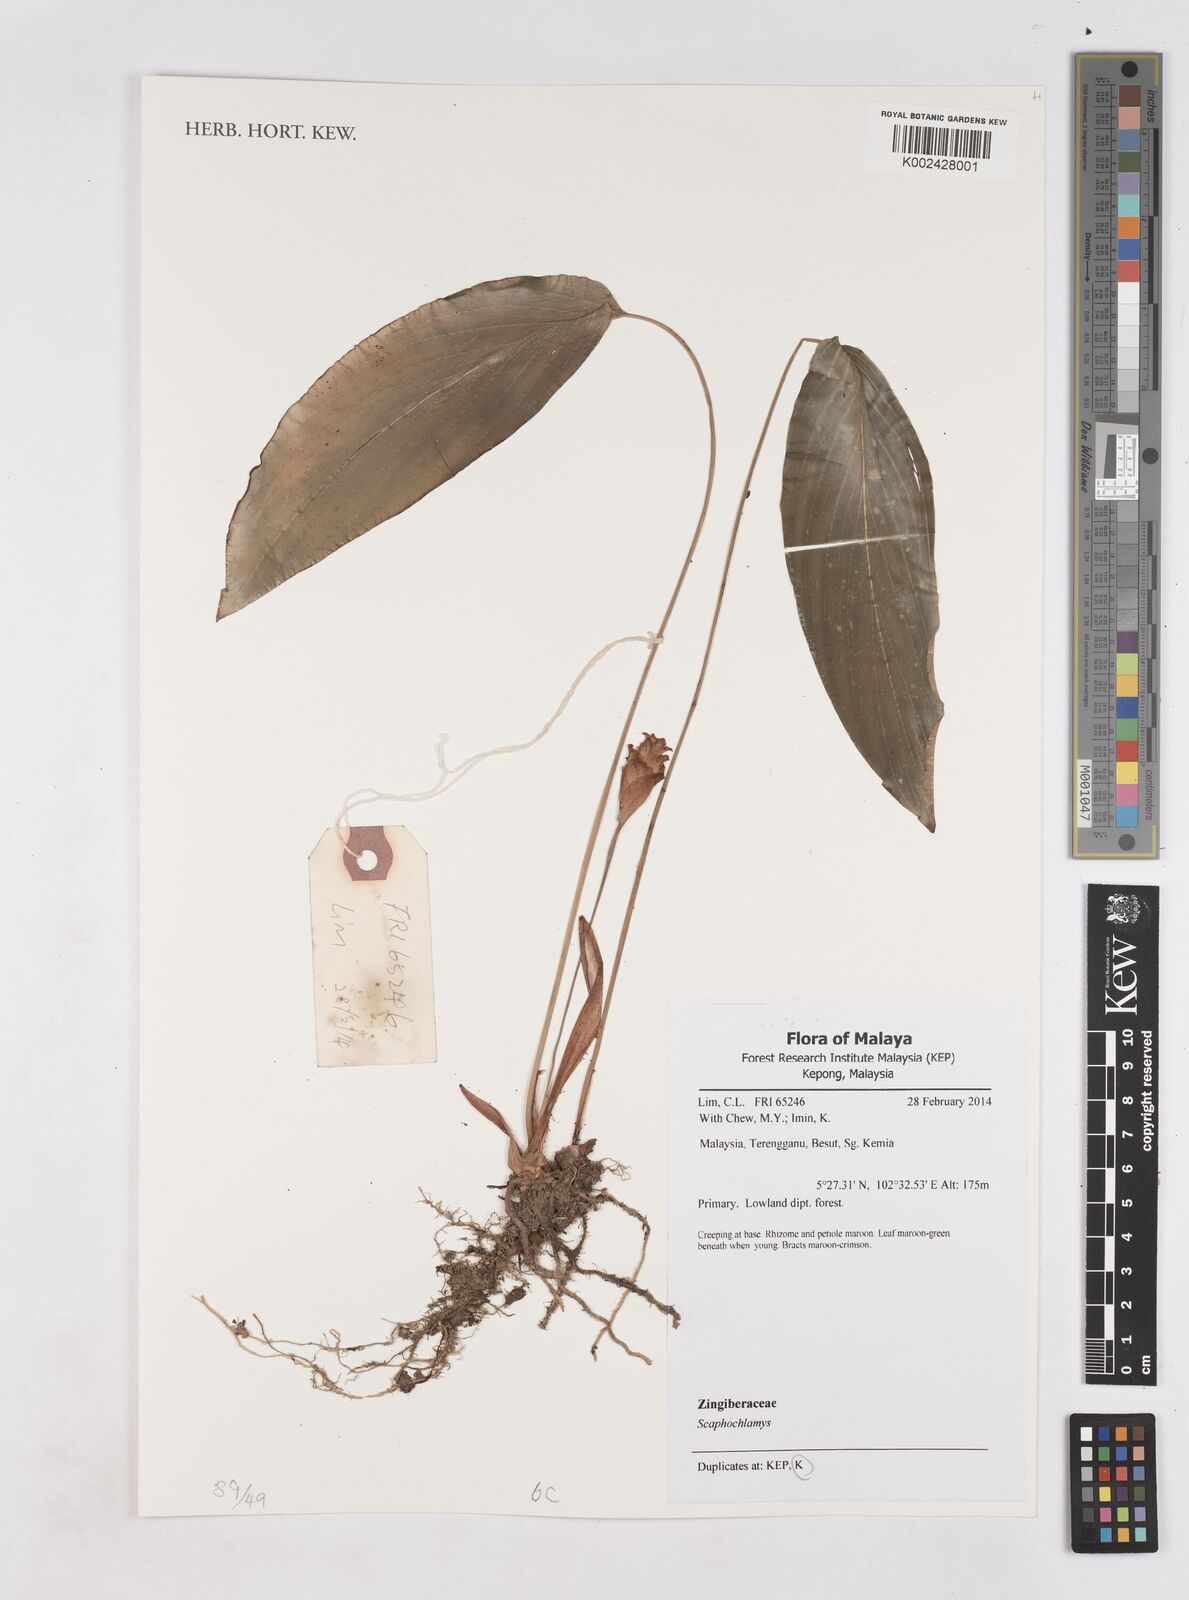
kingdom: Plantae
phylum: Tracheophyta
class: Liliopsida
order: Zingiberales
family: Zingiberaceae
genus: Scaphochlamys
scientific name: Scaphochlamys
